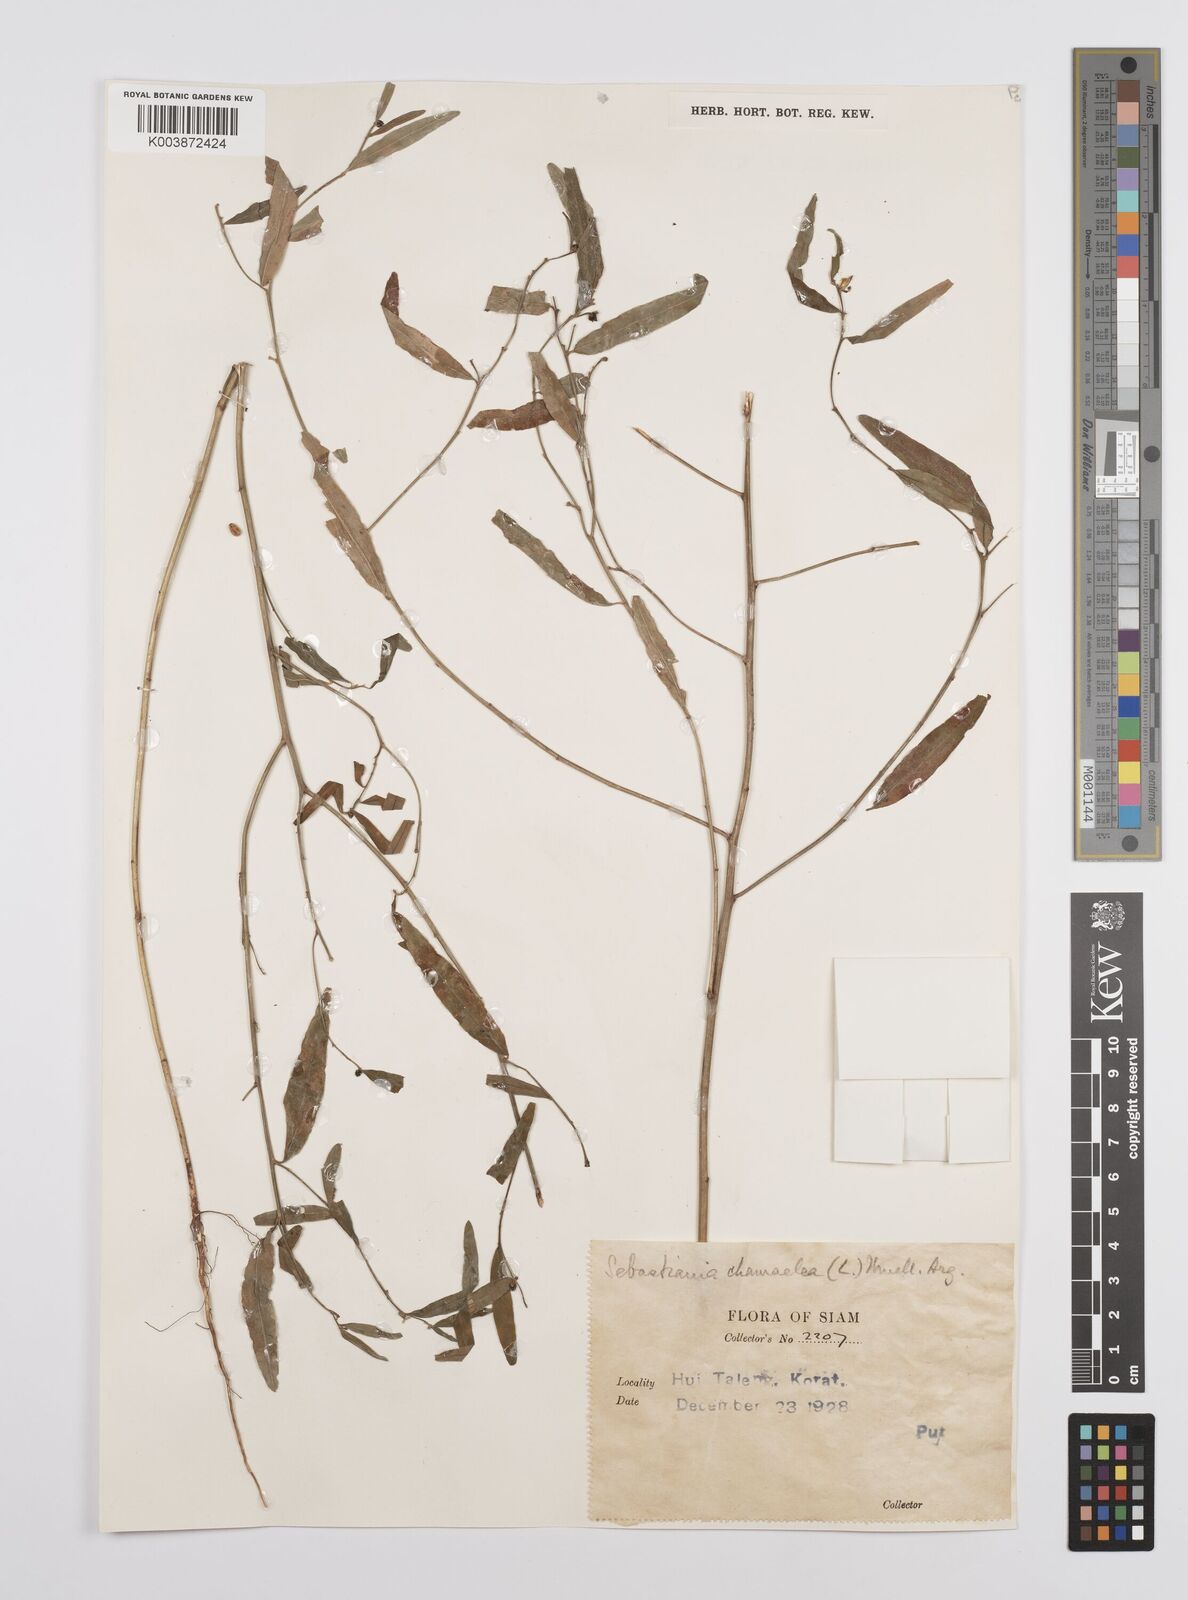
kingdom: Plantae
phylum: Tracheophyta
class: Magnoliopsida
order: Malpighiales
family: Euphorbiaceae
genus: Microstachys
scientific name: Microstachys chamaelea
